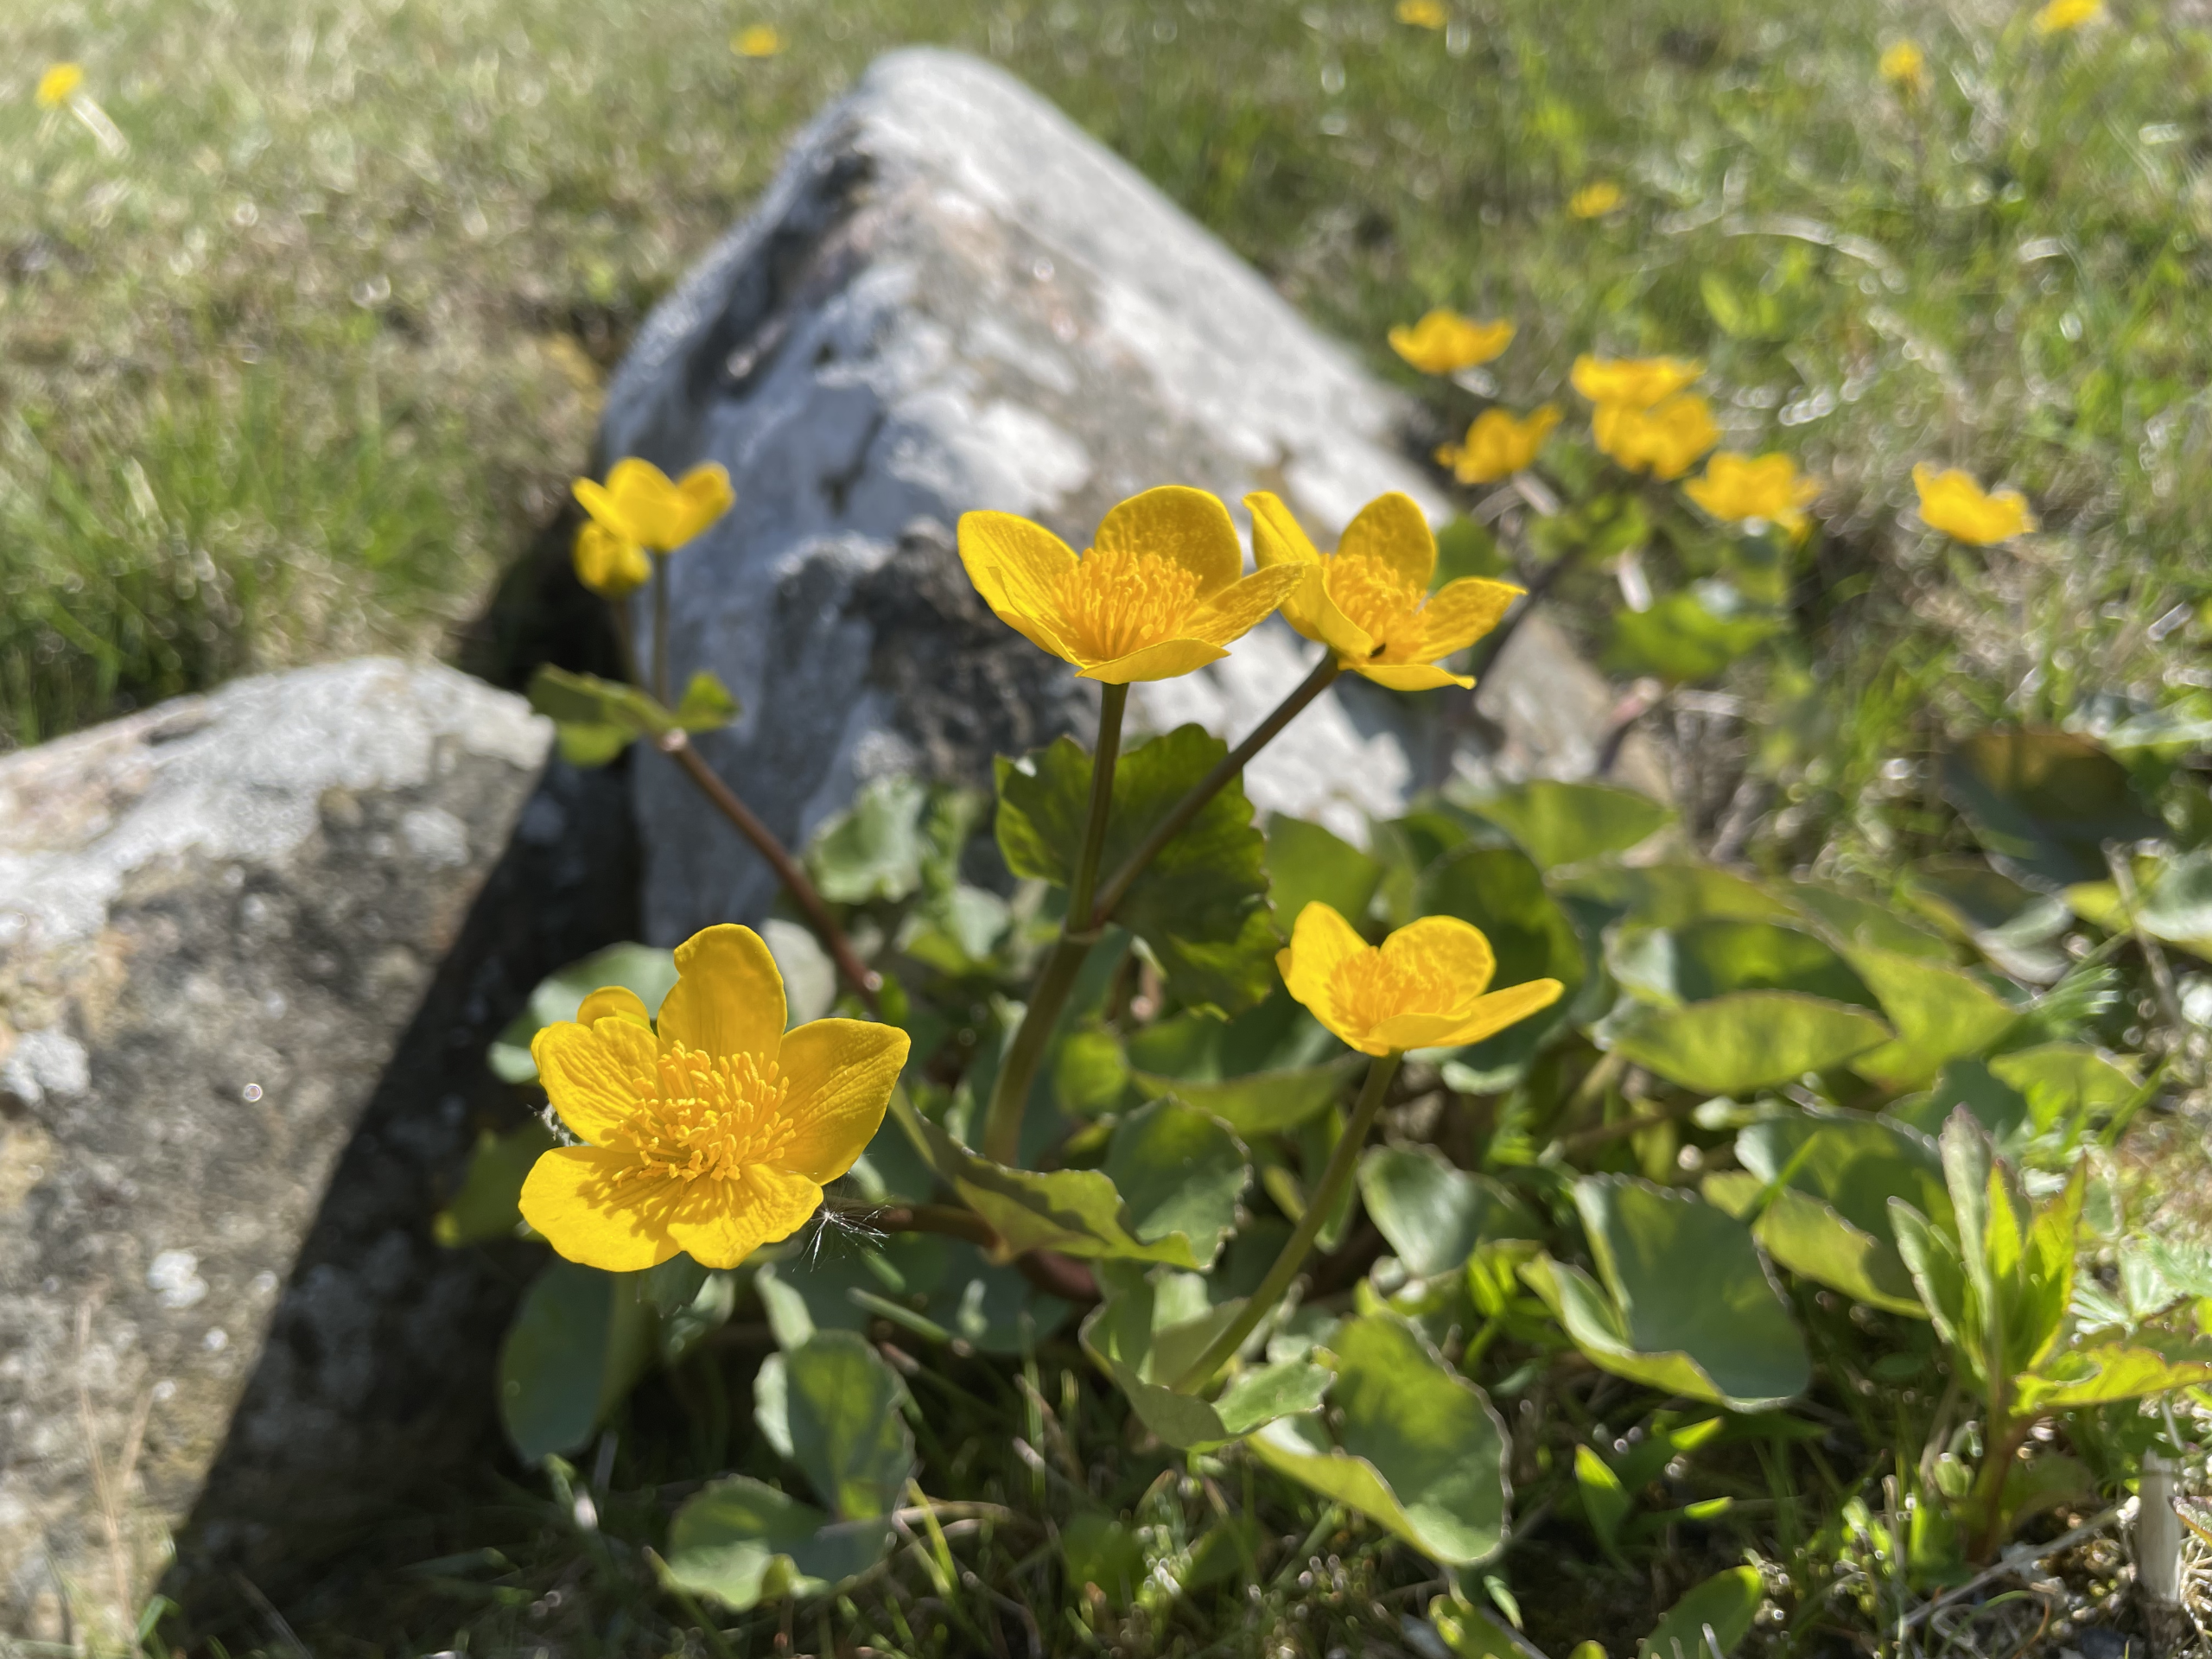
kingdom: Plantae
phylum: Tracheophyta
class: Magnoliopsida
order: Ranunculales
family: Ranunculaceae
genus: Caltha
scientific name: Caltha palustris
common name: Eng-kabbeleje
